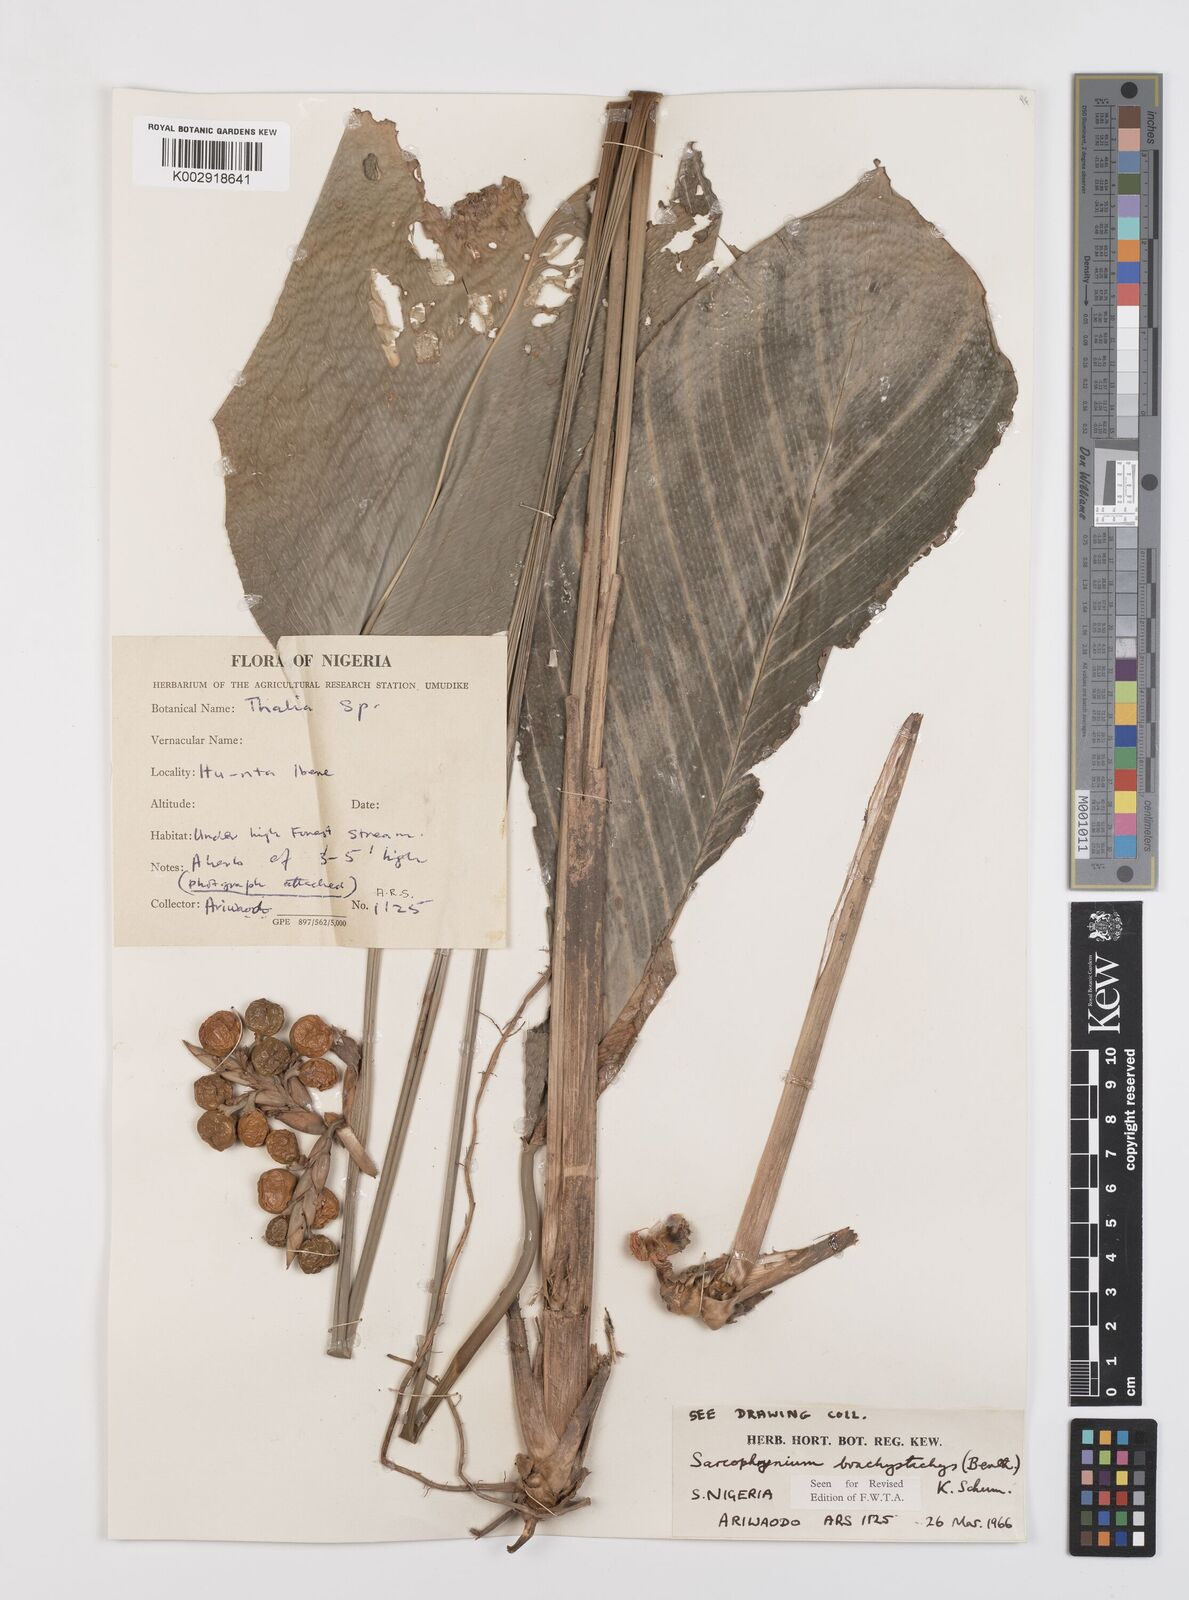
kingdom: Plantae
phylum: Tracheophyta
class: Liliopsida
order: Zingiberales
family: Marantaceae
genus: Sarcophrynium
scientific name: Sarcophrynium brachystachyum
